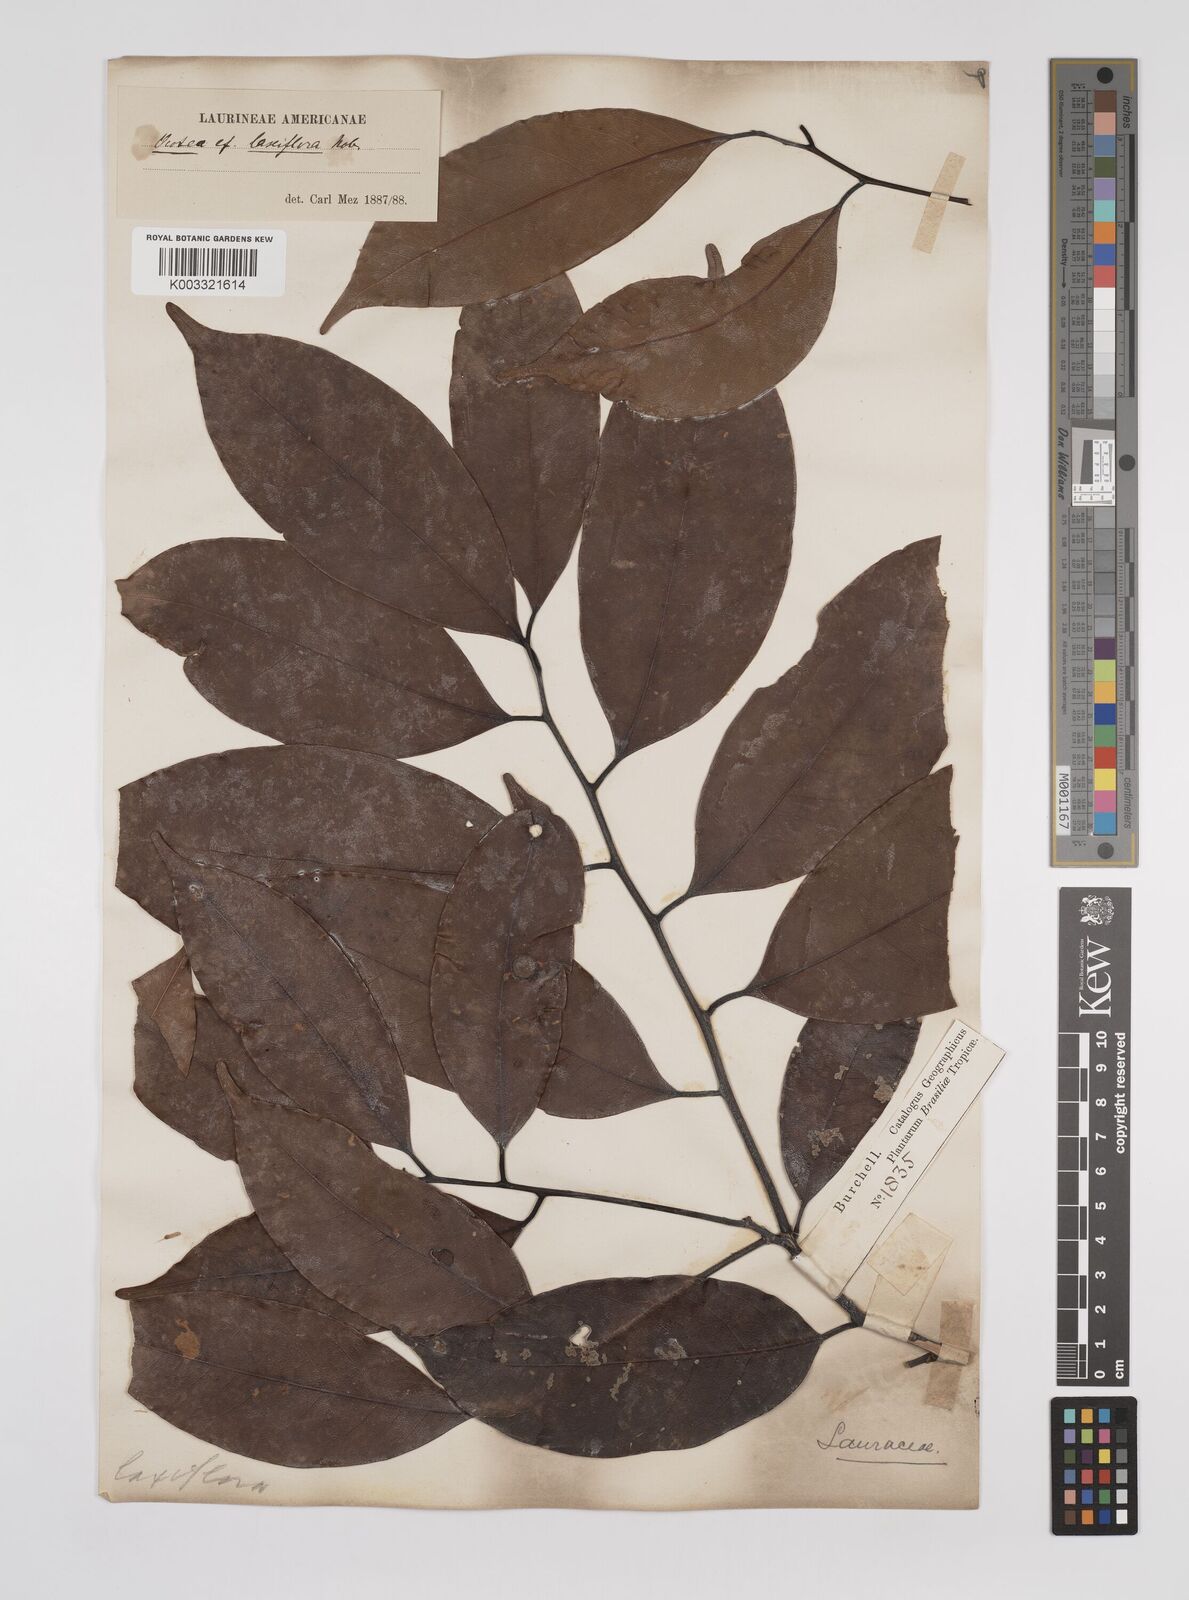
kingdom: Plantae
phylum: Tracheophyta
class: Magnoliopsida
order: Laurales
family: Lauraceae
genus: Ocotea
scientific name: Ocotea pauciflora
